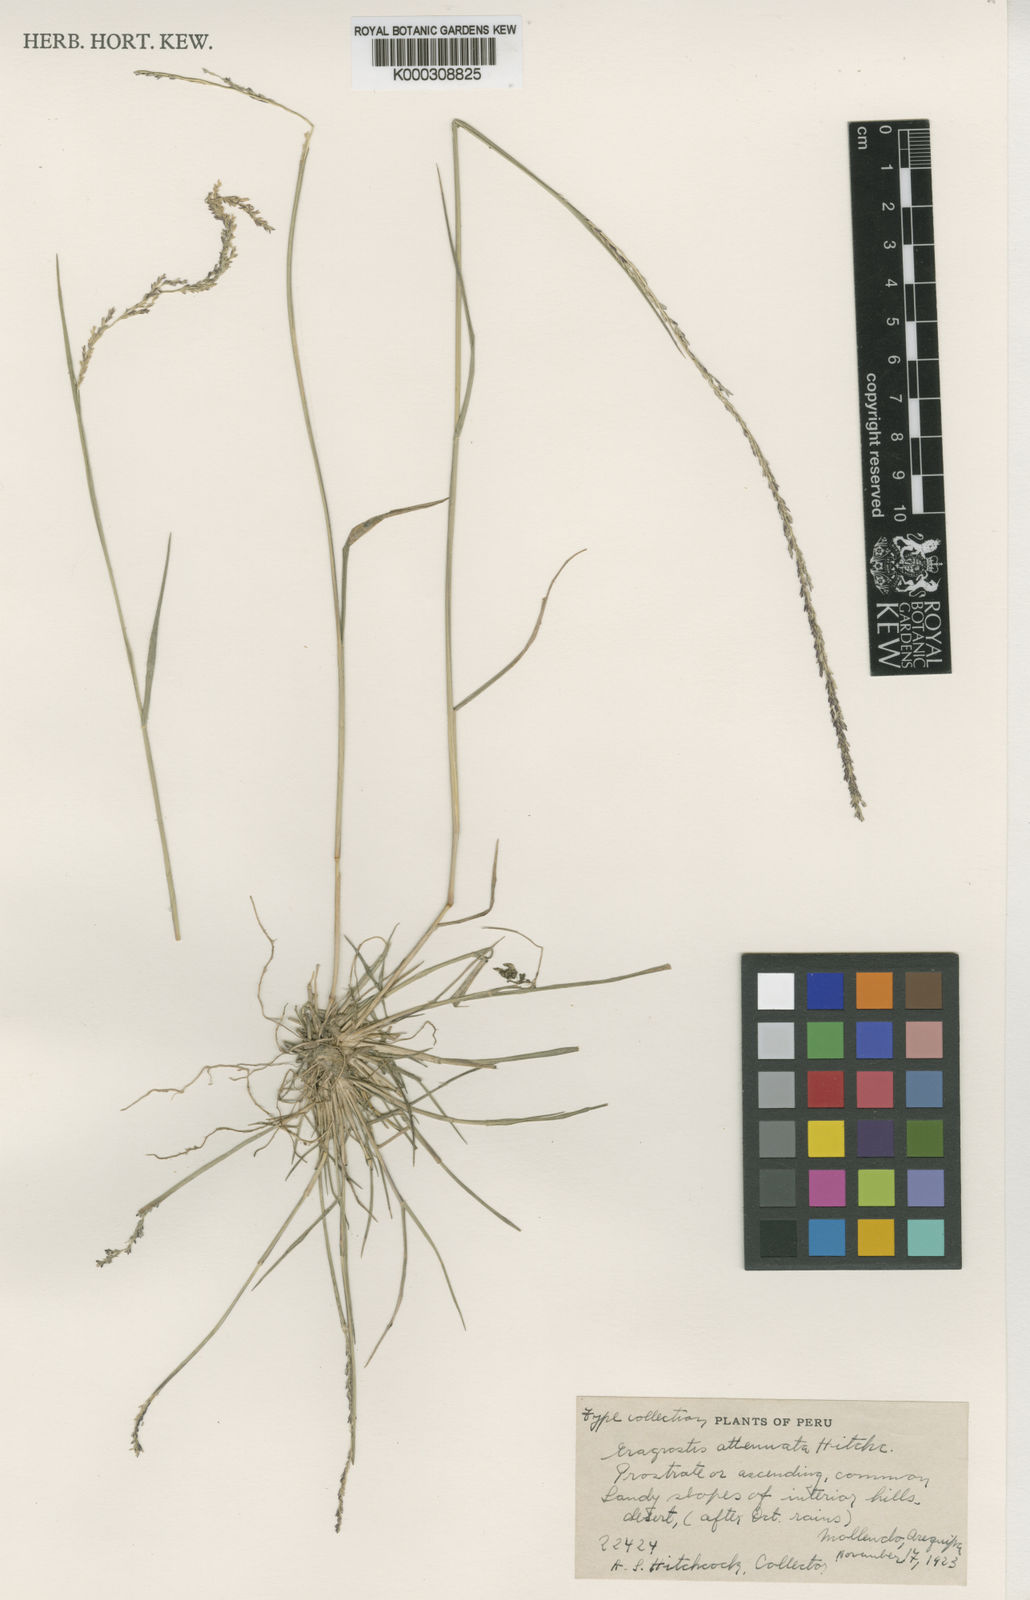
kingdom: Plantae
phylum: Tracheophyta
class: Liliopsida
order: Poales
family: Poaceae
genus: Eragrostis
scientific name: Eragrostis attenuata
